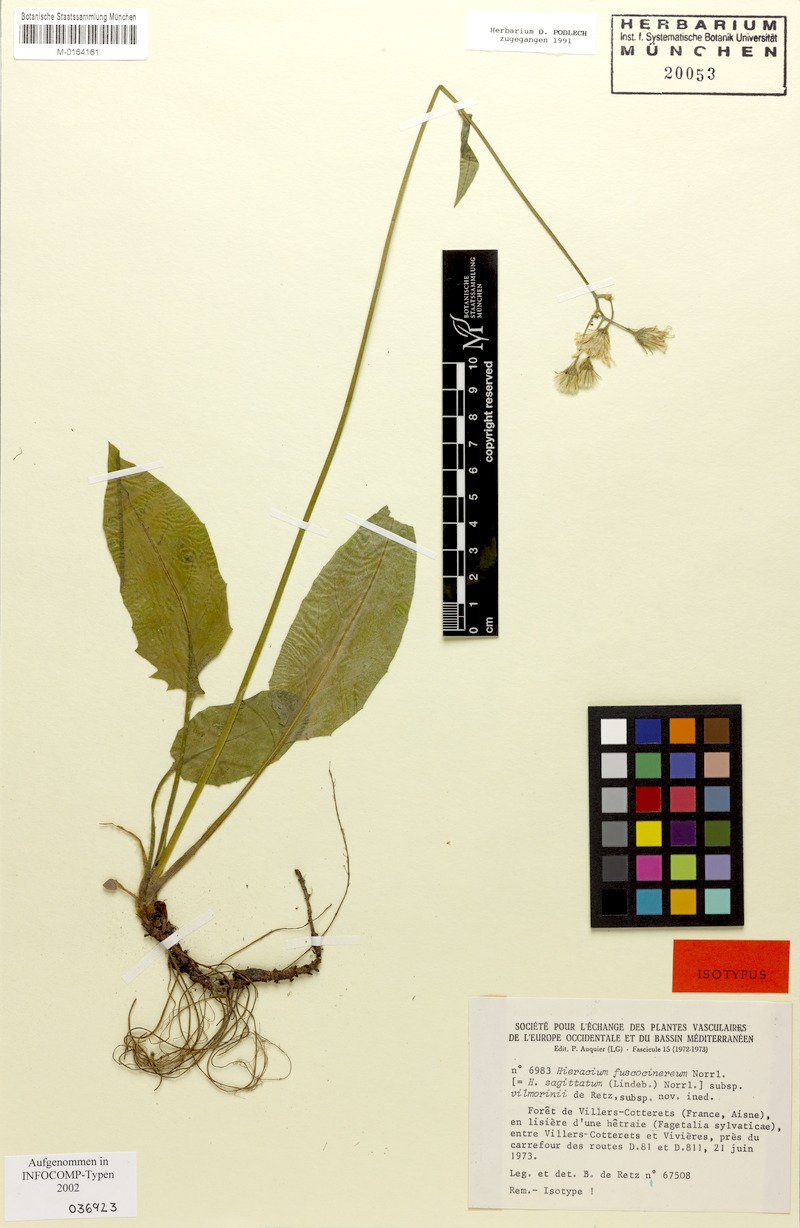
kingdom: Plantae
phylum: Tracheophyta
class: Magnoliopsida
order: Asterales
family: Asteraceae
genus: Hieracium
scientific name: Hieracium fuscocinereum
